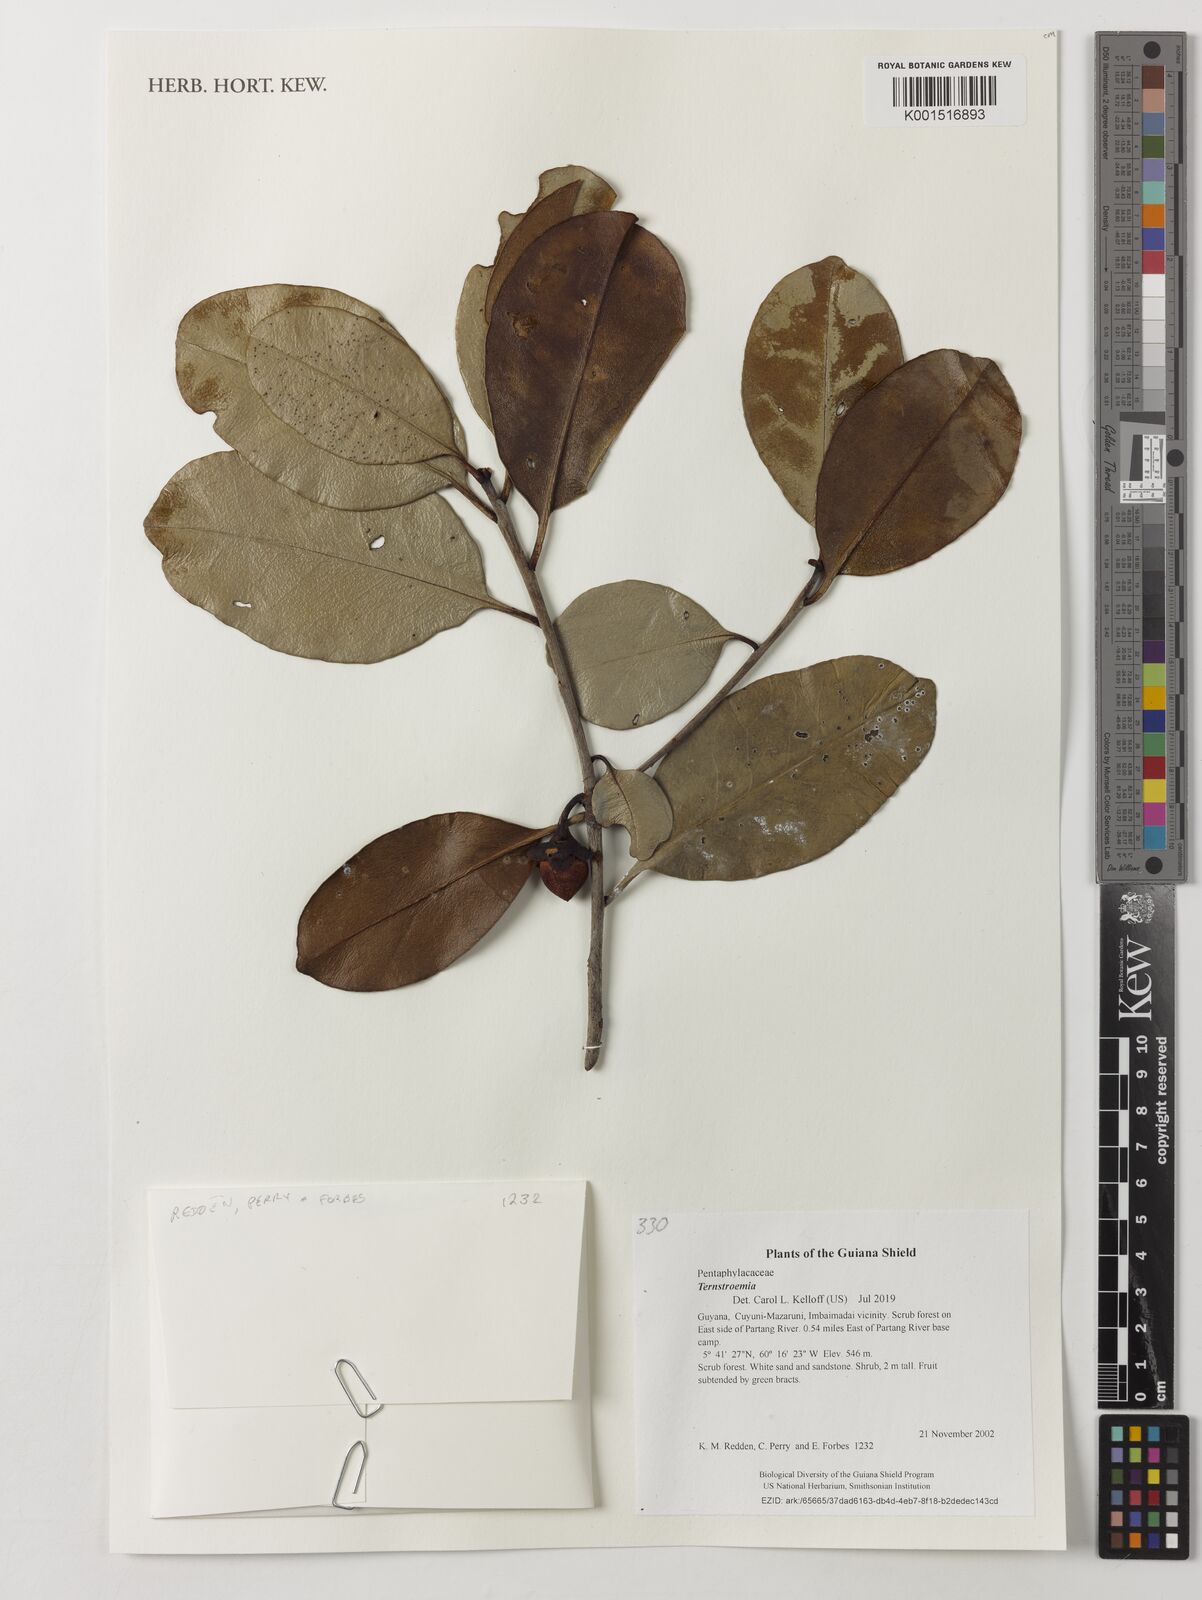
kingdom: Plantae
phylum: Tracheophyta
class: Magnoliopsida
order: Ericales
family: Pentaphylacaceae
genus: Ternstroemia
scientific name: Ternstroemia
